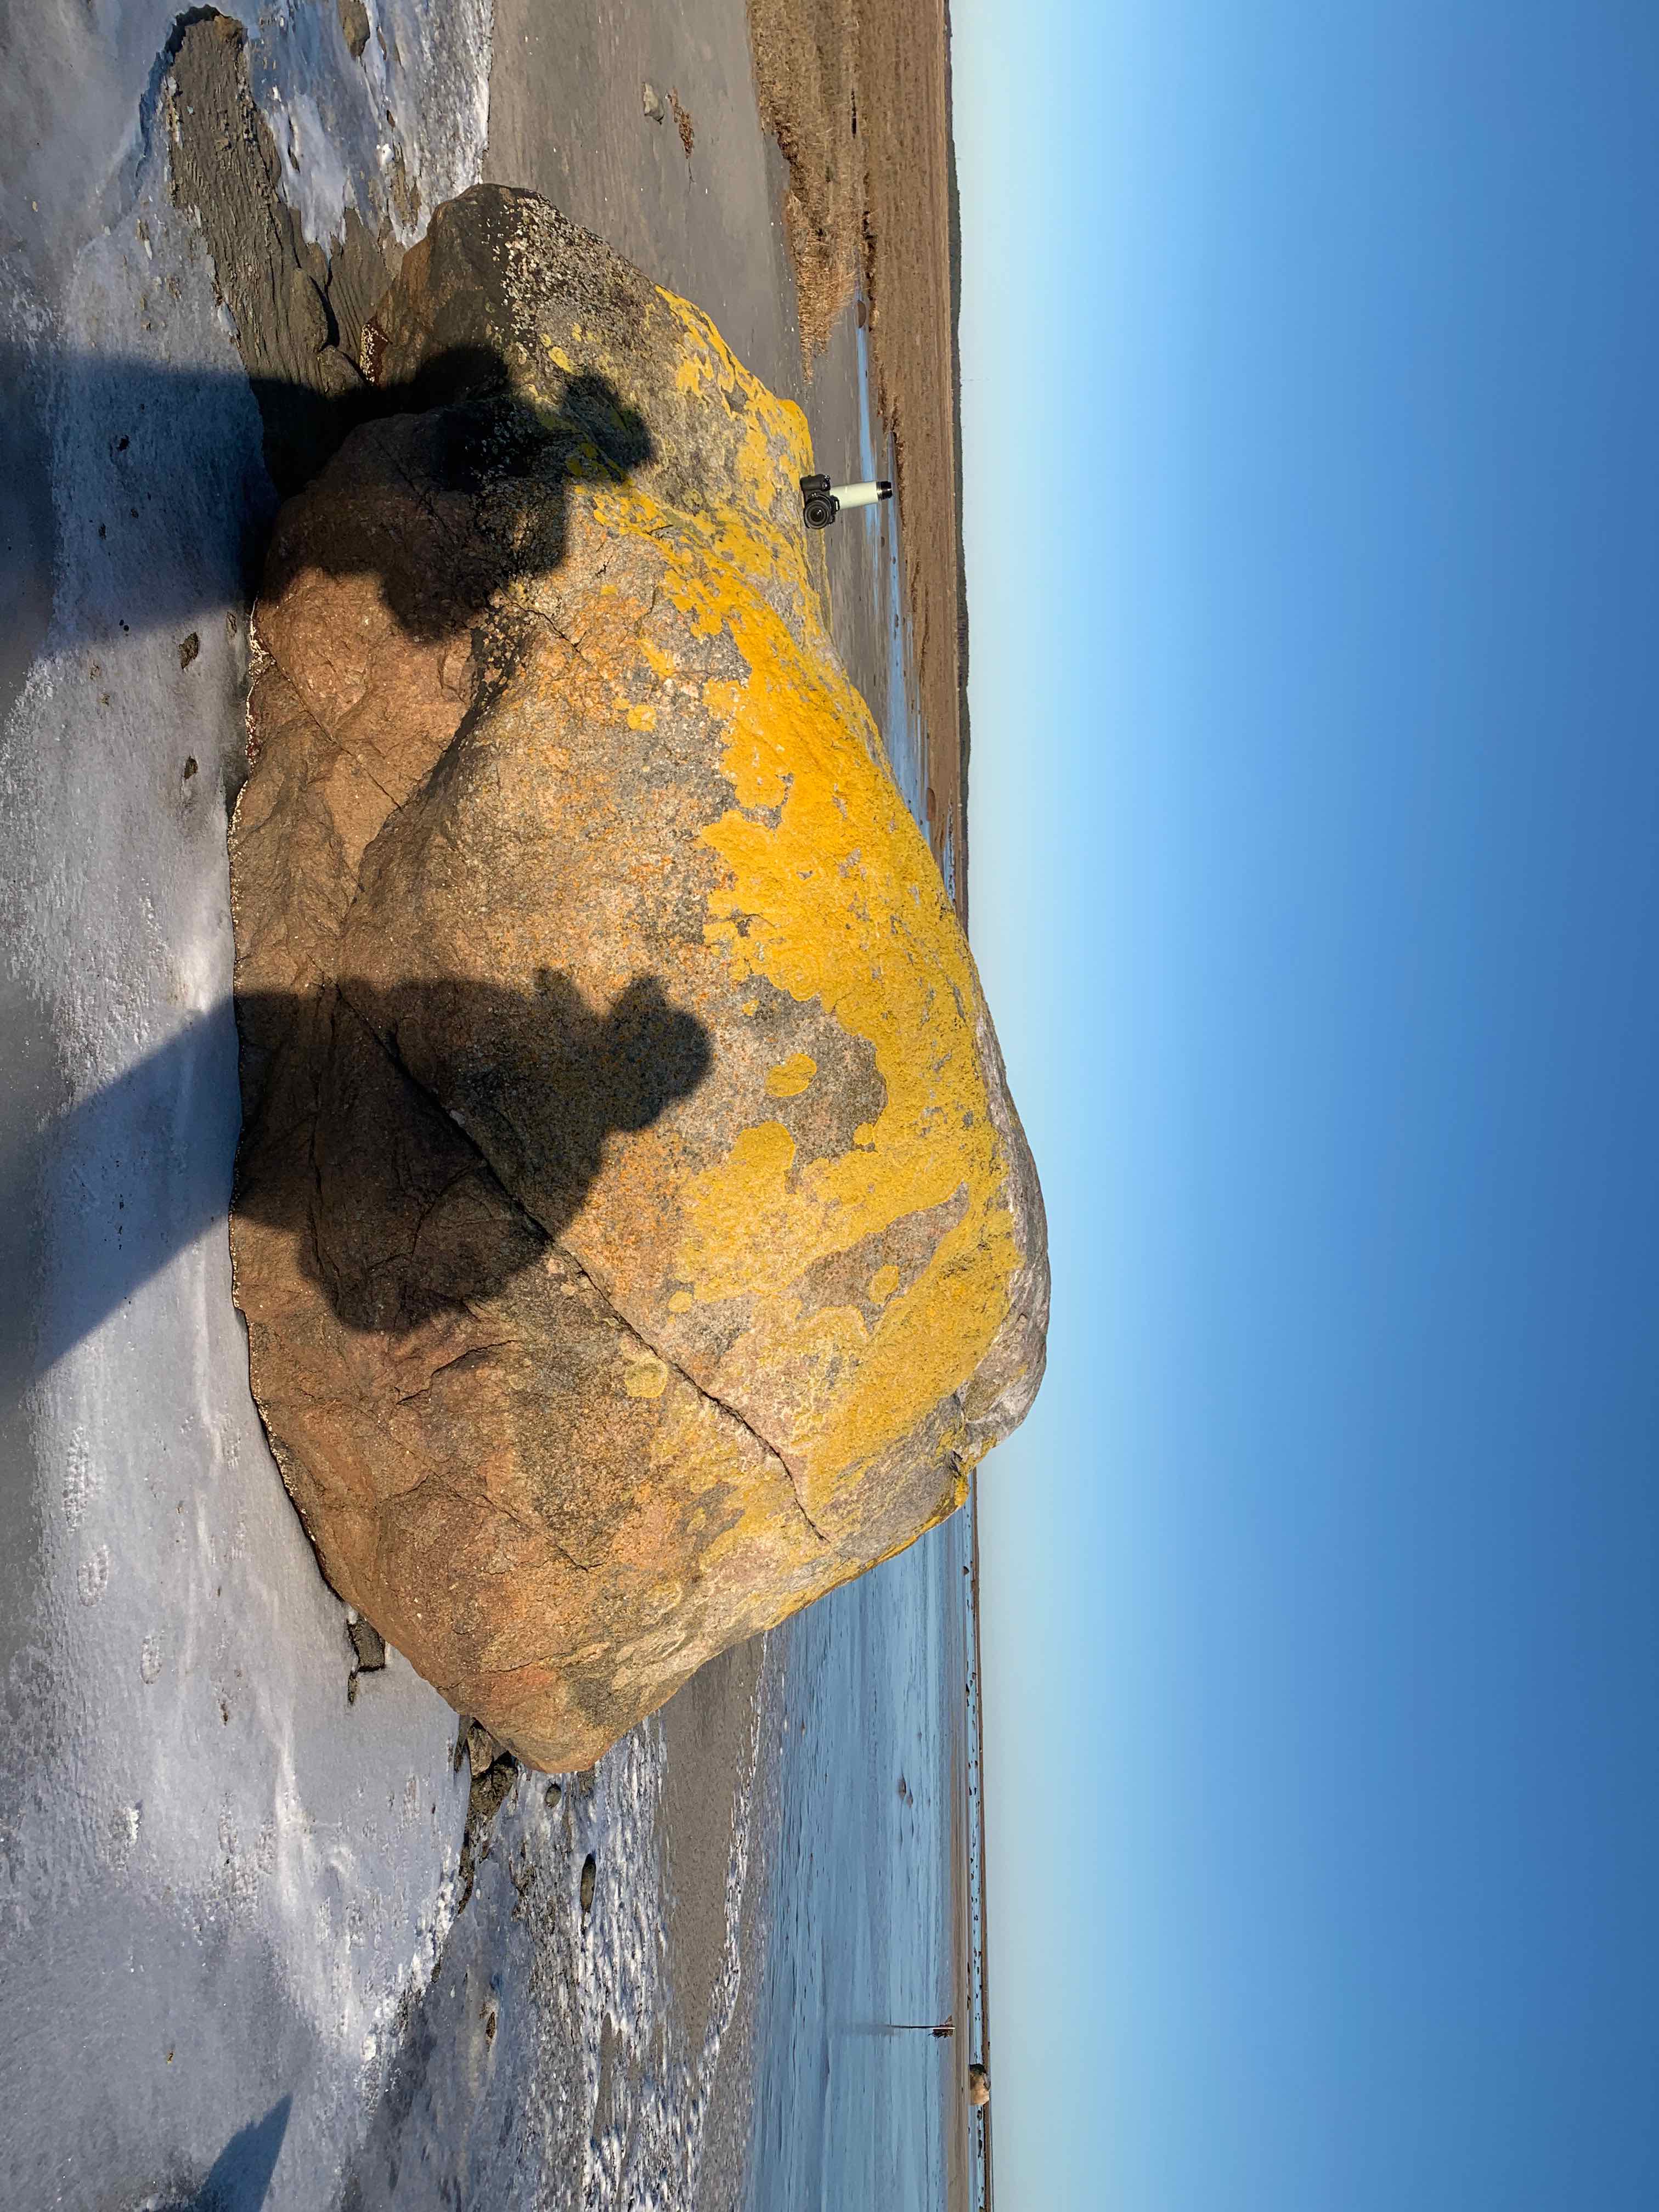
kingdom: Fungi
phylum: Ascomycota
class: Lecanoromycetes
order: Teloschistales
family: Teloschistaceae
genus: Xanthoria
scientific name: Xanthoria calcicola
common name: vortet væggelav
